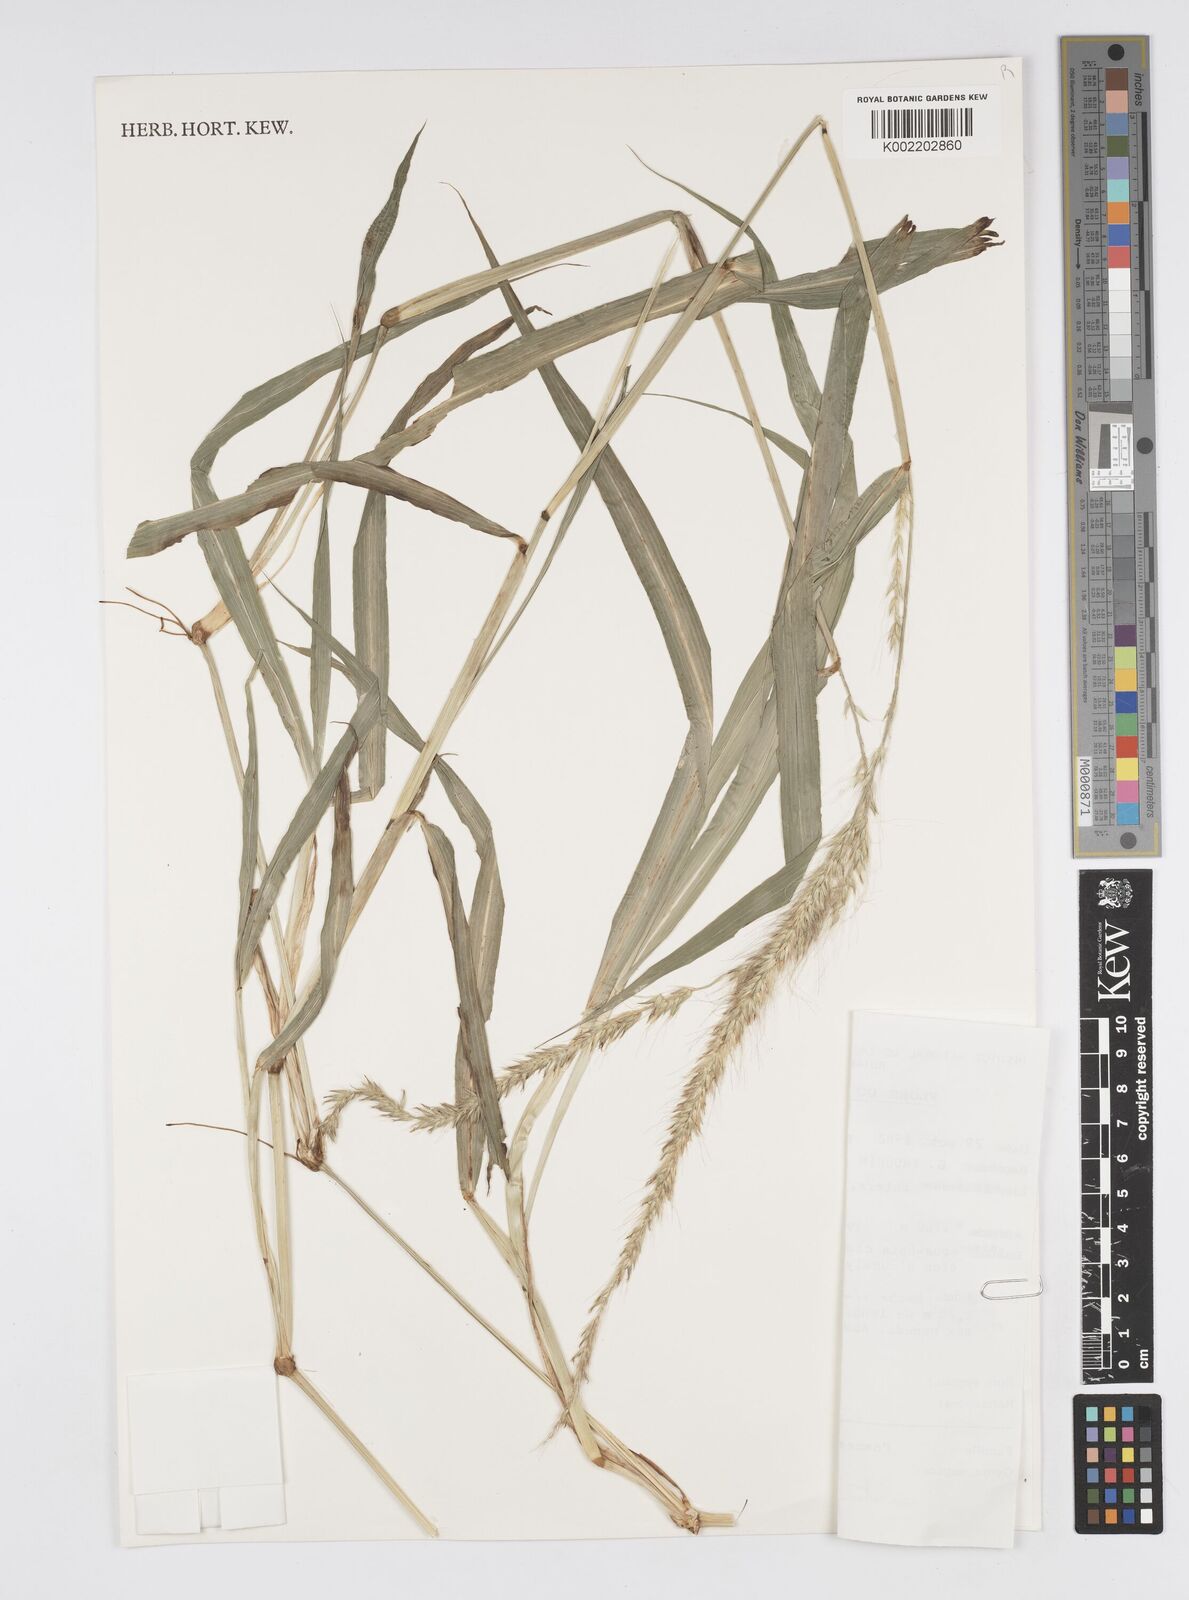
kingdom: Plantae
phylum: Tracheophyta
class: Liliopsida
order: Poales
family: Poaceae
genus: Cenchrus
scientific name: Cenchrus trachyphyllus
